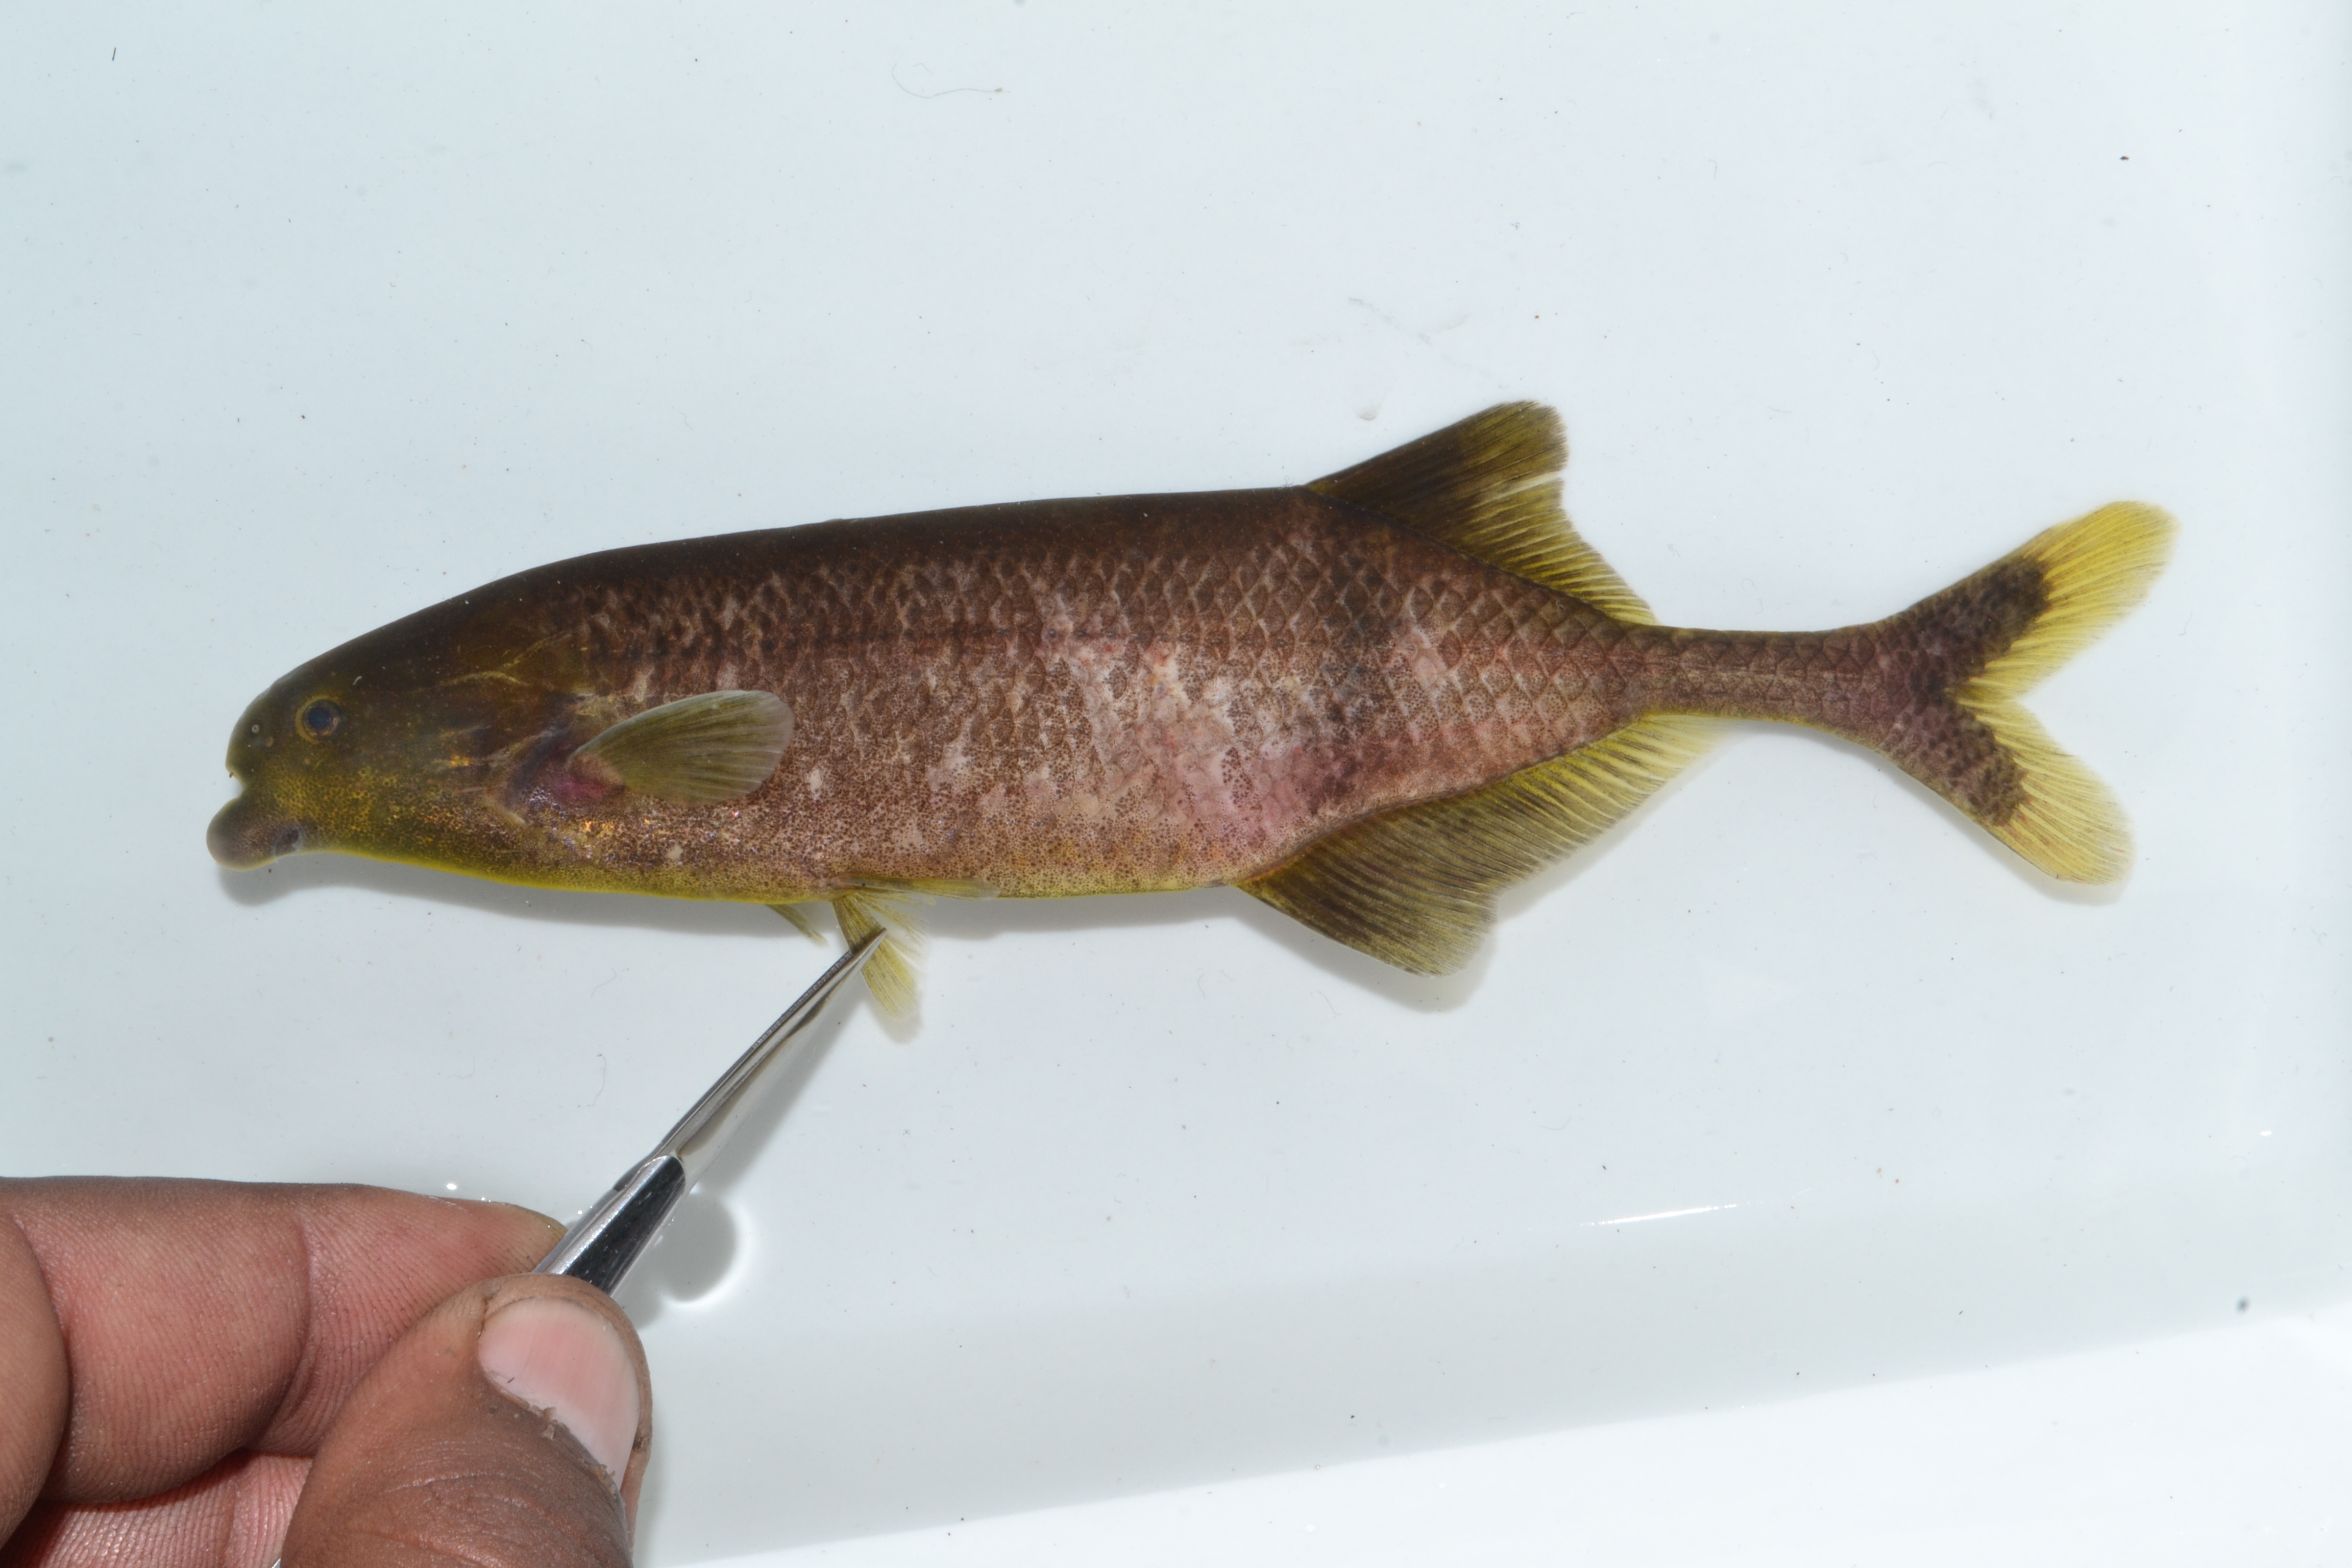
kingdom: Animalia
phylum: Chordata
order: Osteoglossiformes
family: Mormyridae
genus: Marcusenius
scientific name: Marcusenius
